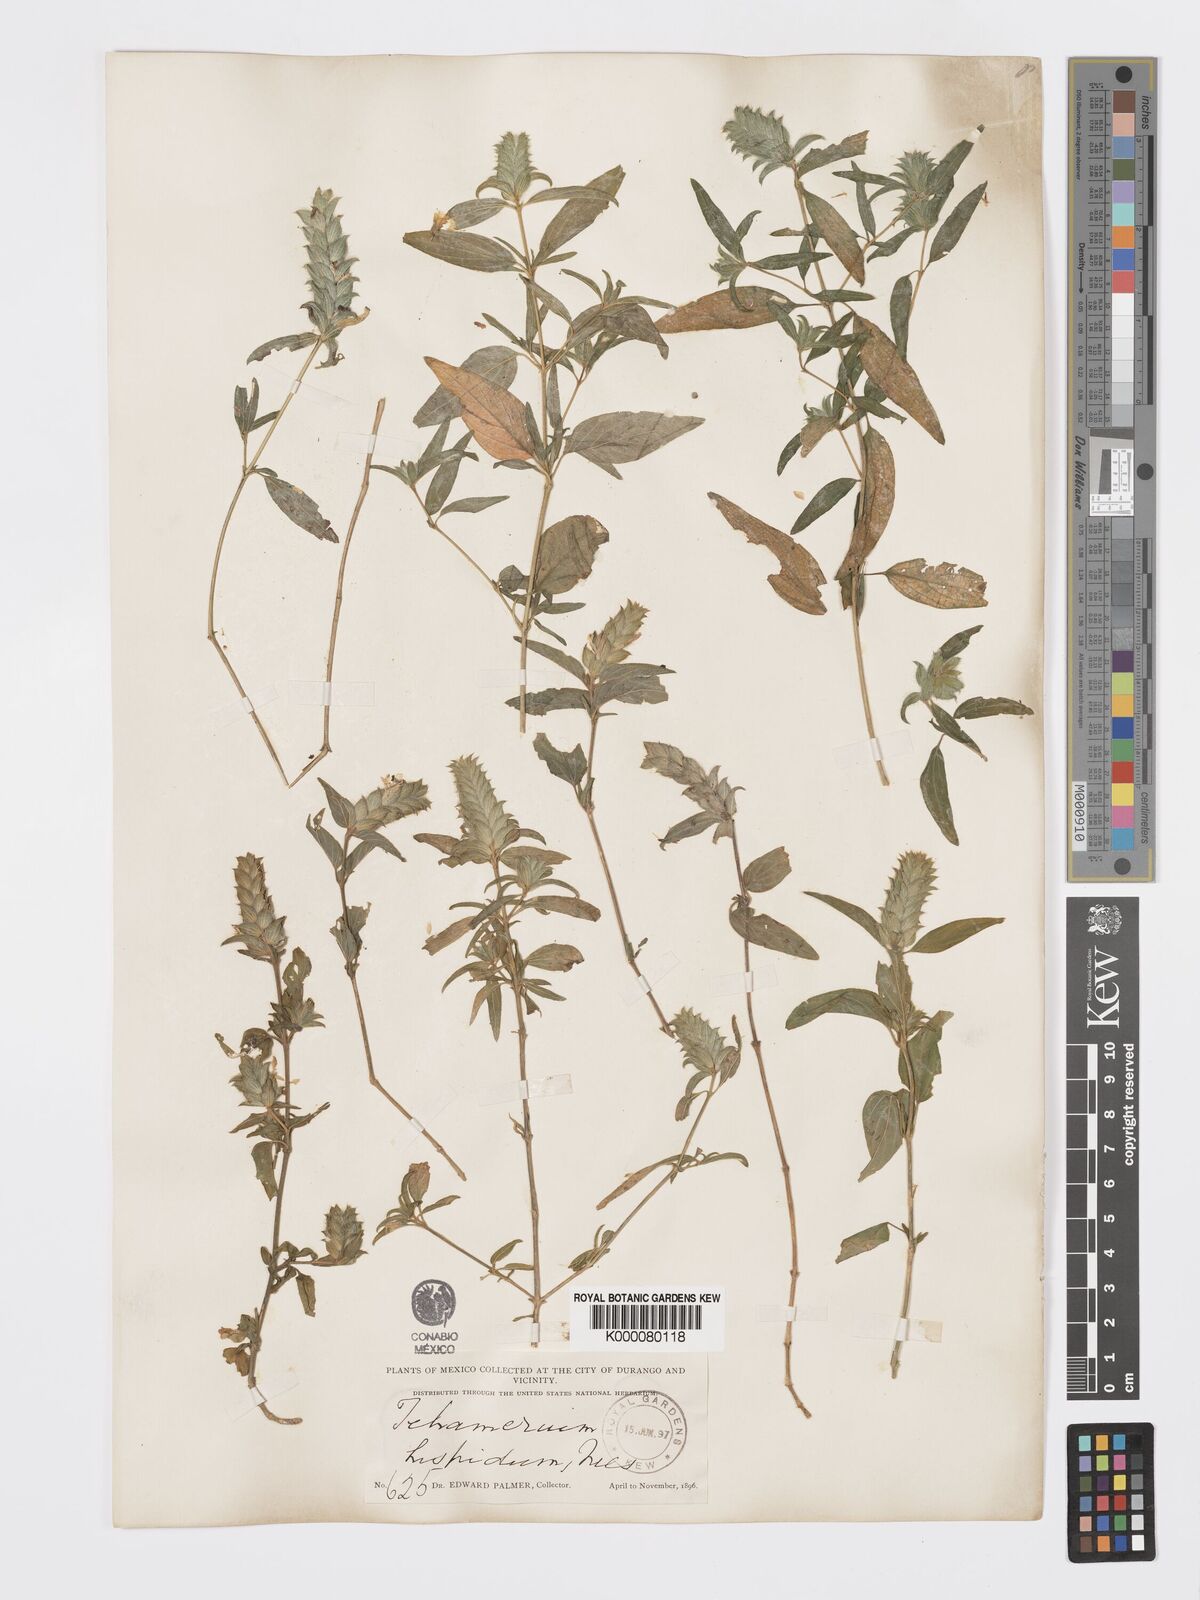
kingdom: Plantae
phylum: Tracheophyta
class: Magnoliopsida
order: Lamiales
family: Acanthaceae
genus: Tetramerium
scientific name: Tetramerium nervosum
